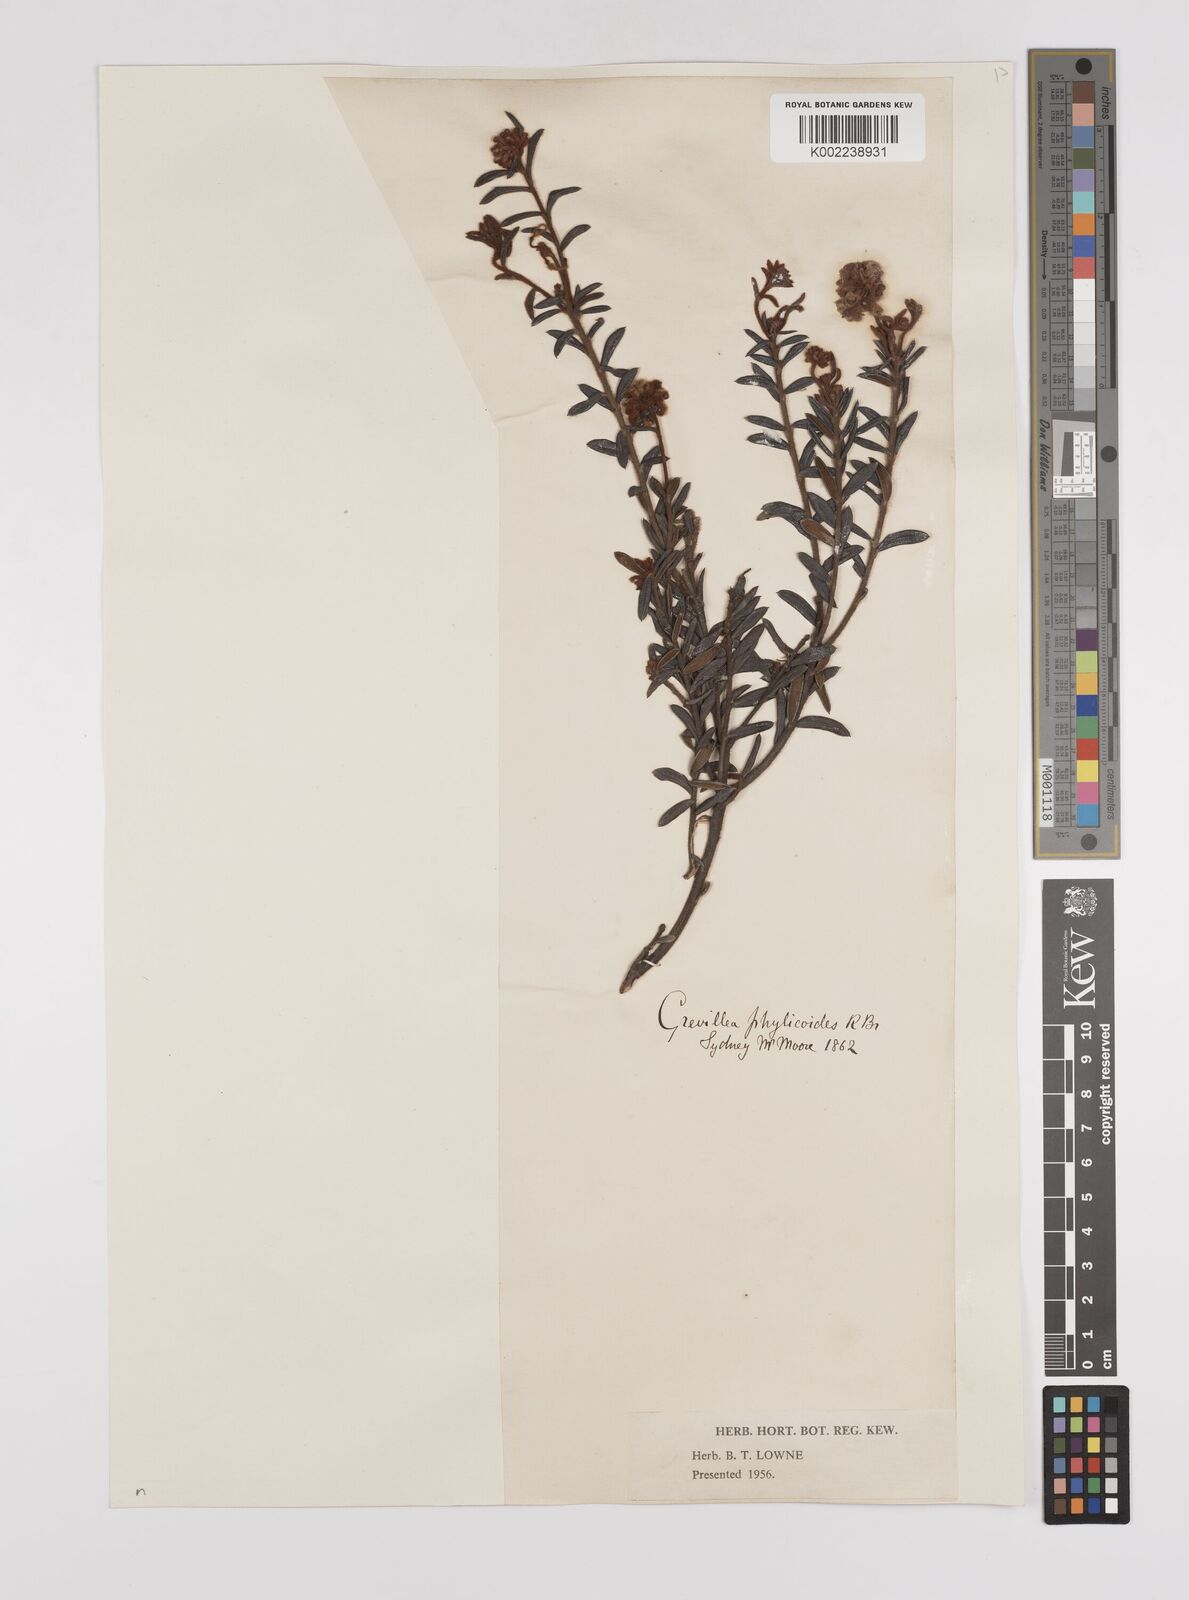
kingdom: Plantae
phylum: Tracheophyta
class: Magnoliopsida
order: Proteales
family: Proteaceae
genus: Grevillea
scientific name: Grevillea phylicoides
